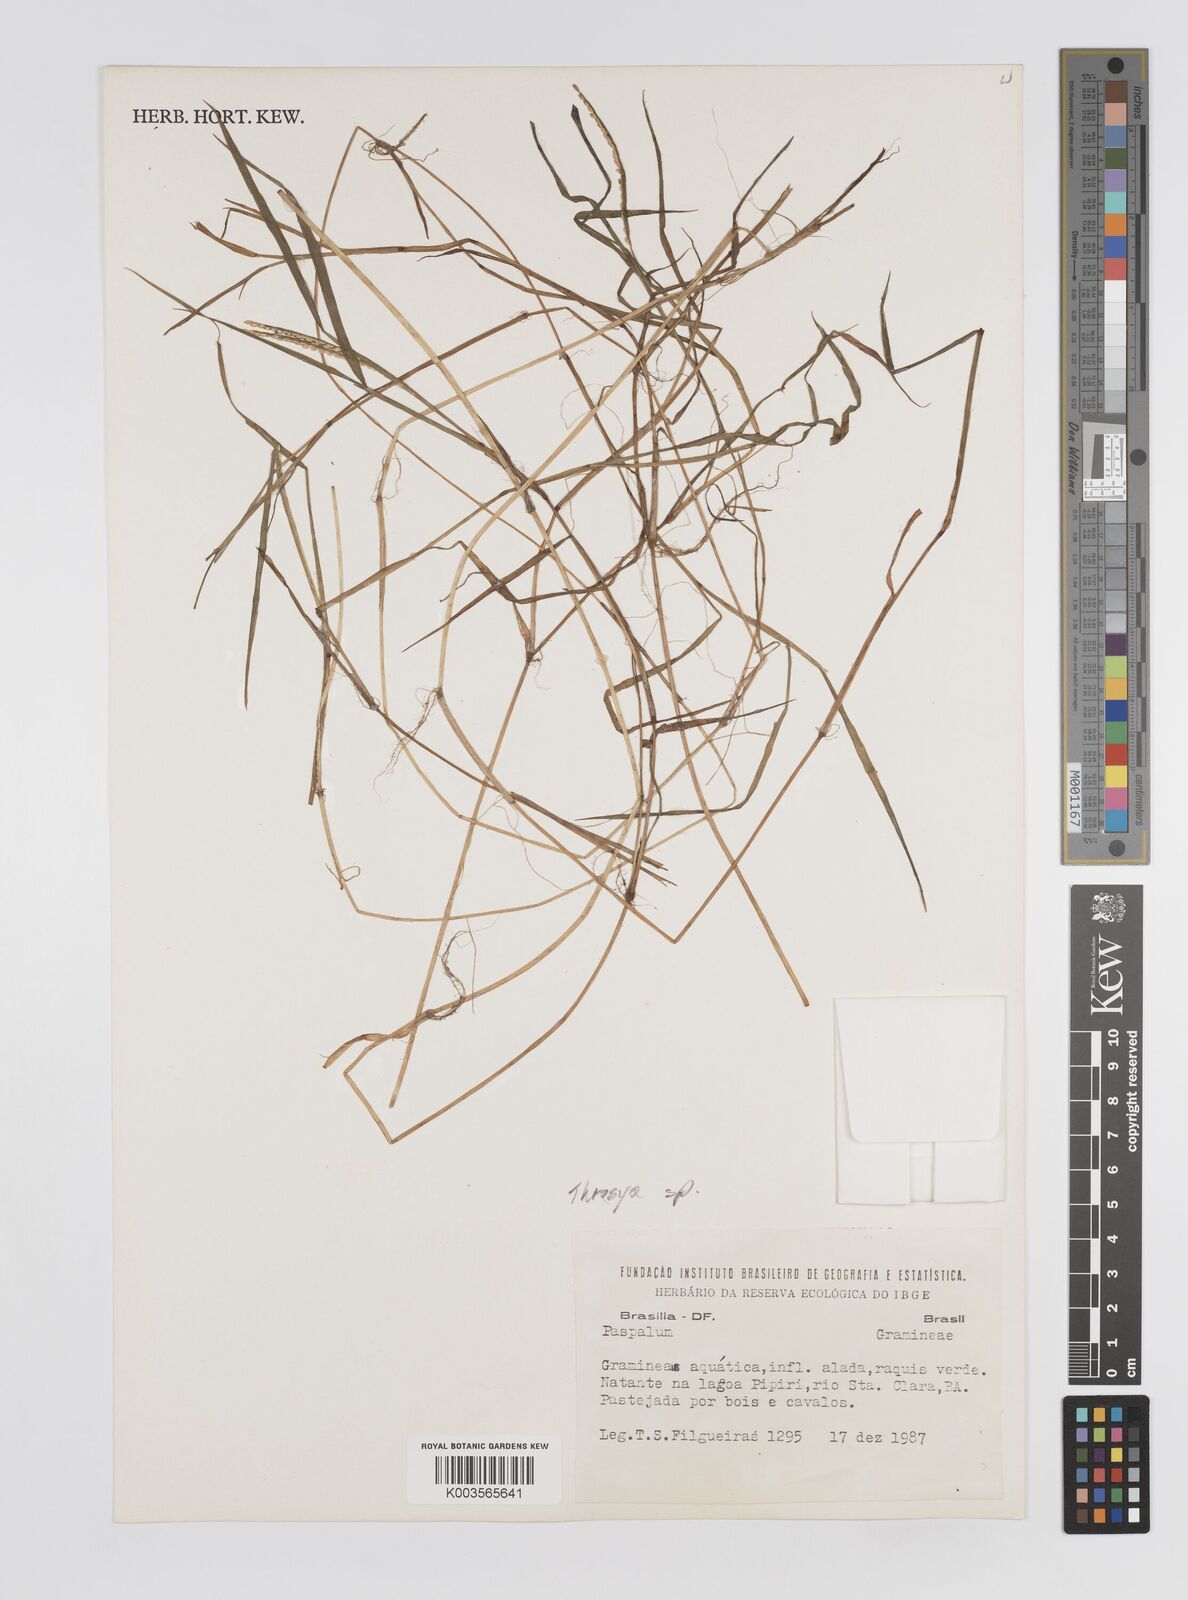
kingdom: Plantae
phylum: Tracheophyta
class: Liliopsida
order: Poales
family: Poaceae
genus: Paspalum
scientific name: Paspalum
